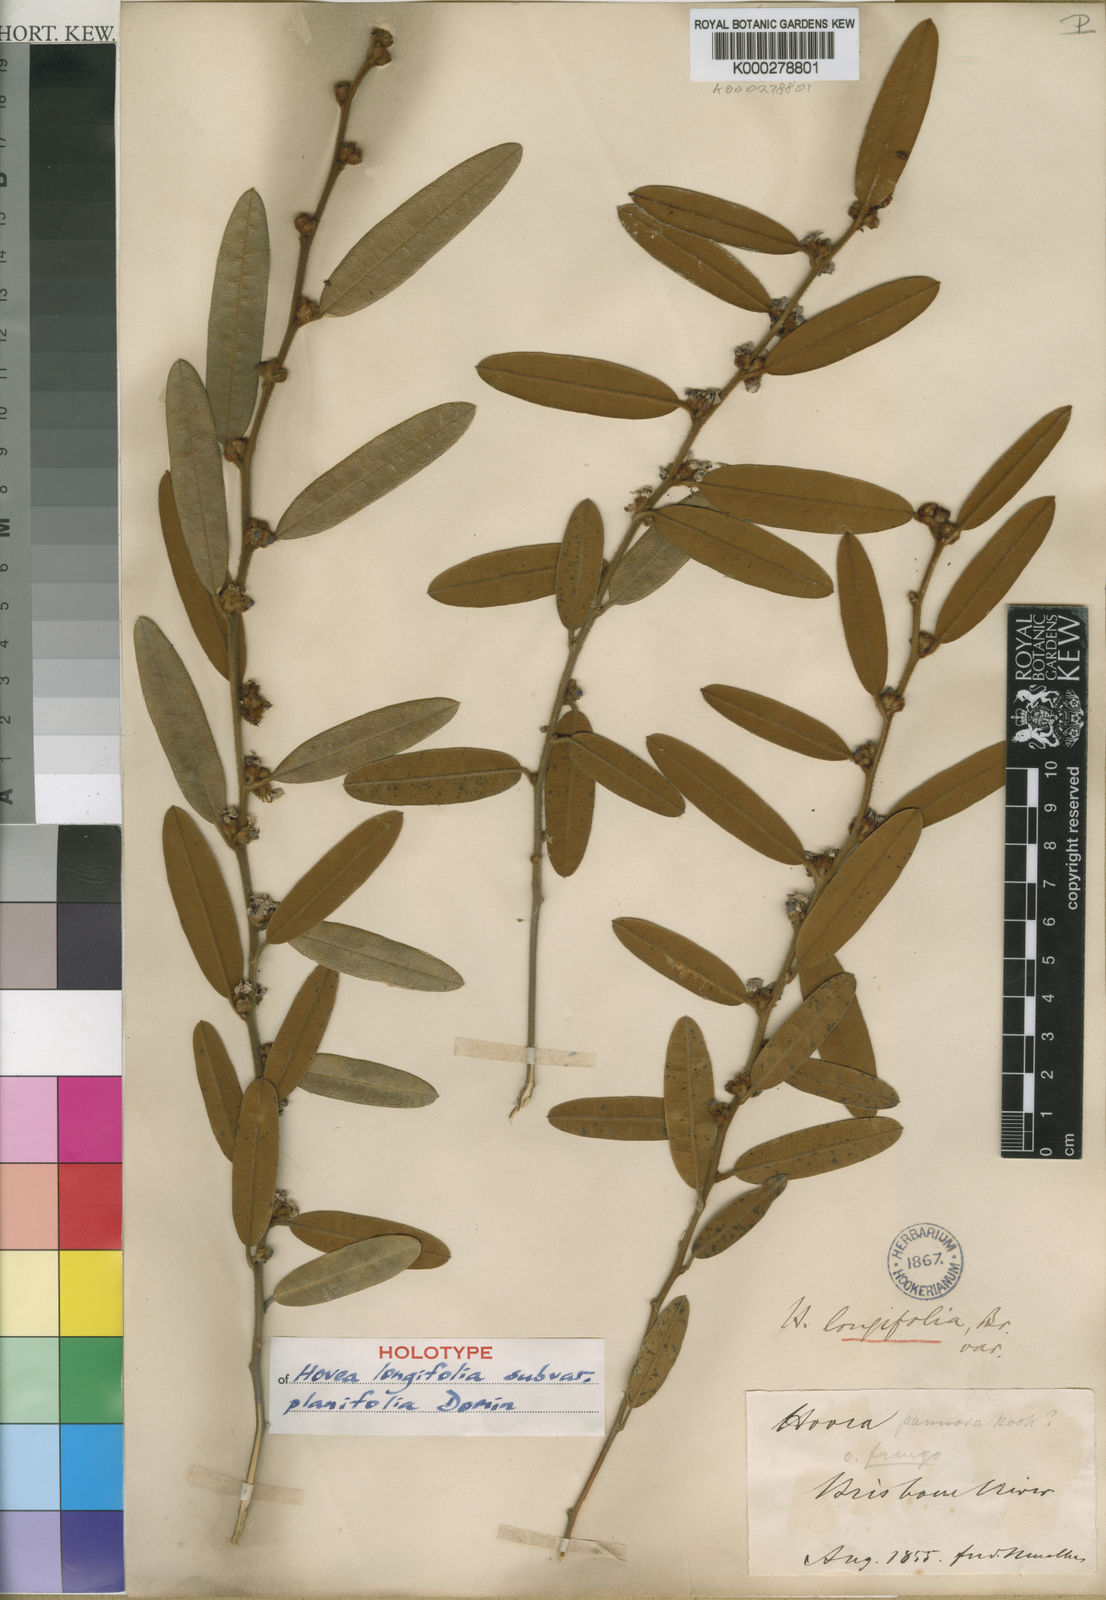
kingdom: Plantae
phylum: Tracheophyta
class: Magnoliopsida
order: Fabales
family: Fabaceae
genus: Hovea
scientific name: Hovea longifolia
